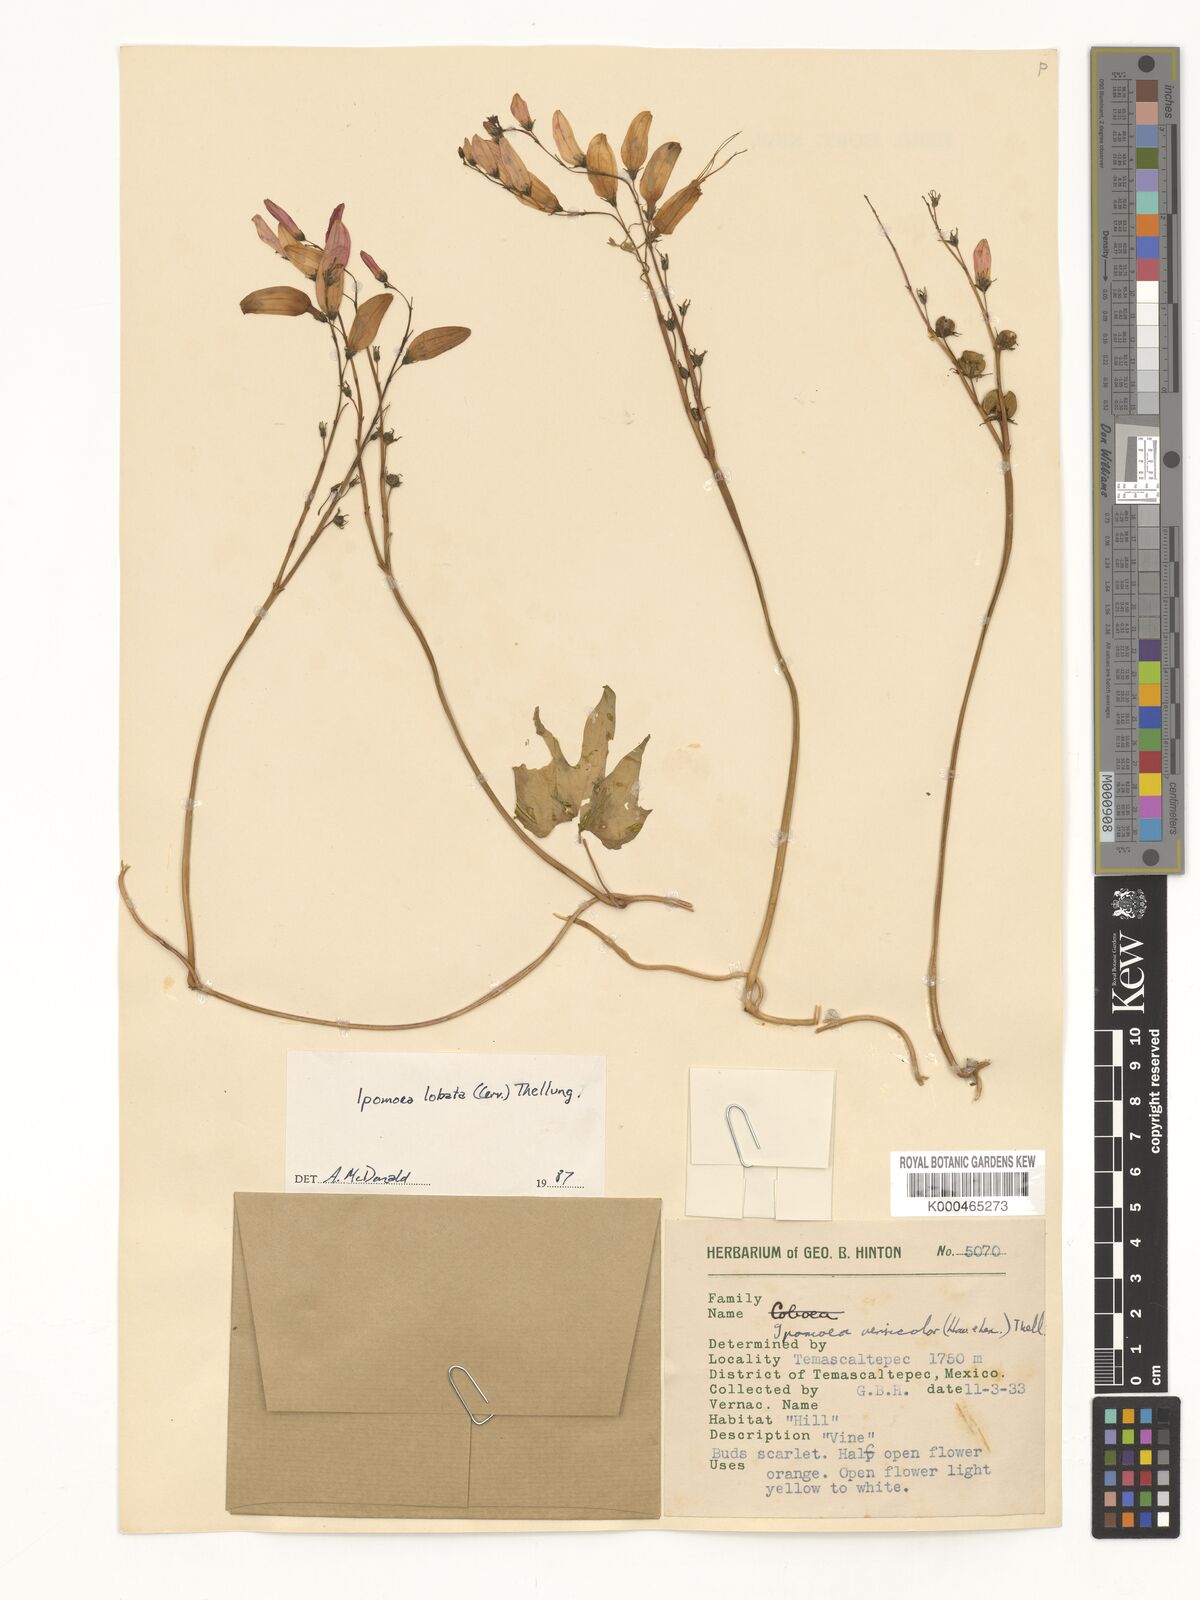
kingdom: Plantae
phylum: Tracheophyta
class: Magnoliopsida
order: Solanales
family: Convolvulaceae
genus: Ipomoea
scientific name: Ipomoea lobata
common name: Spanish-flag
